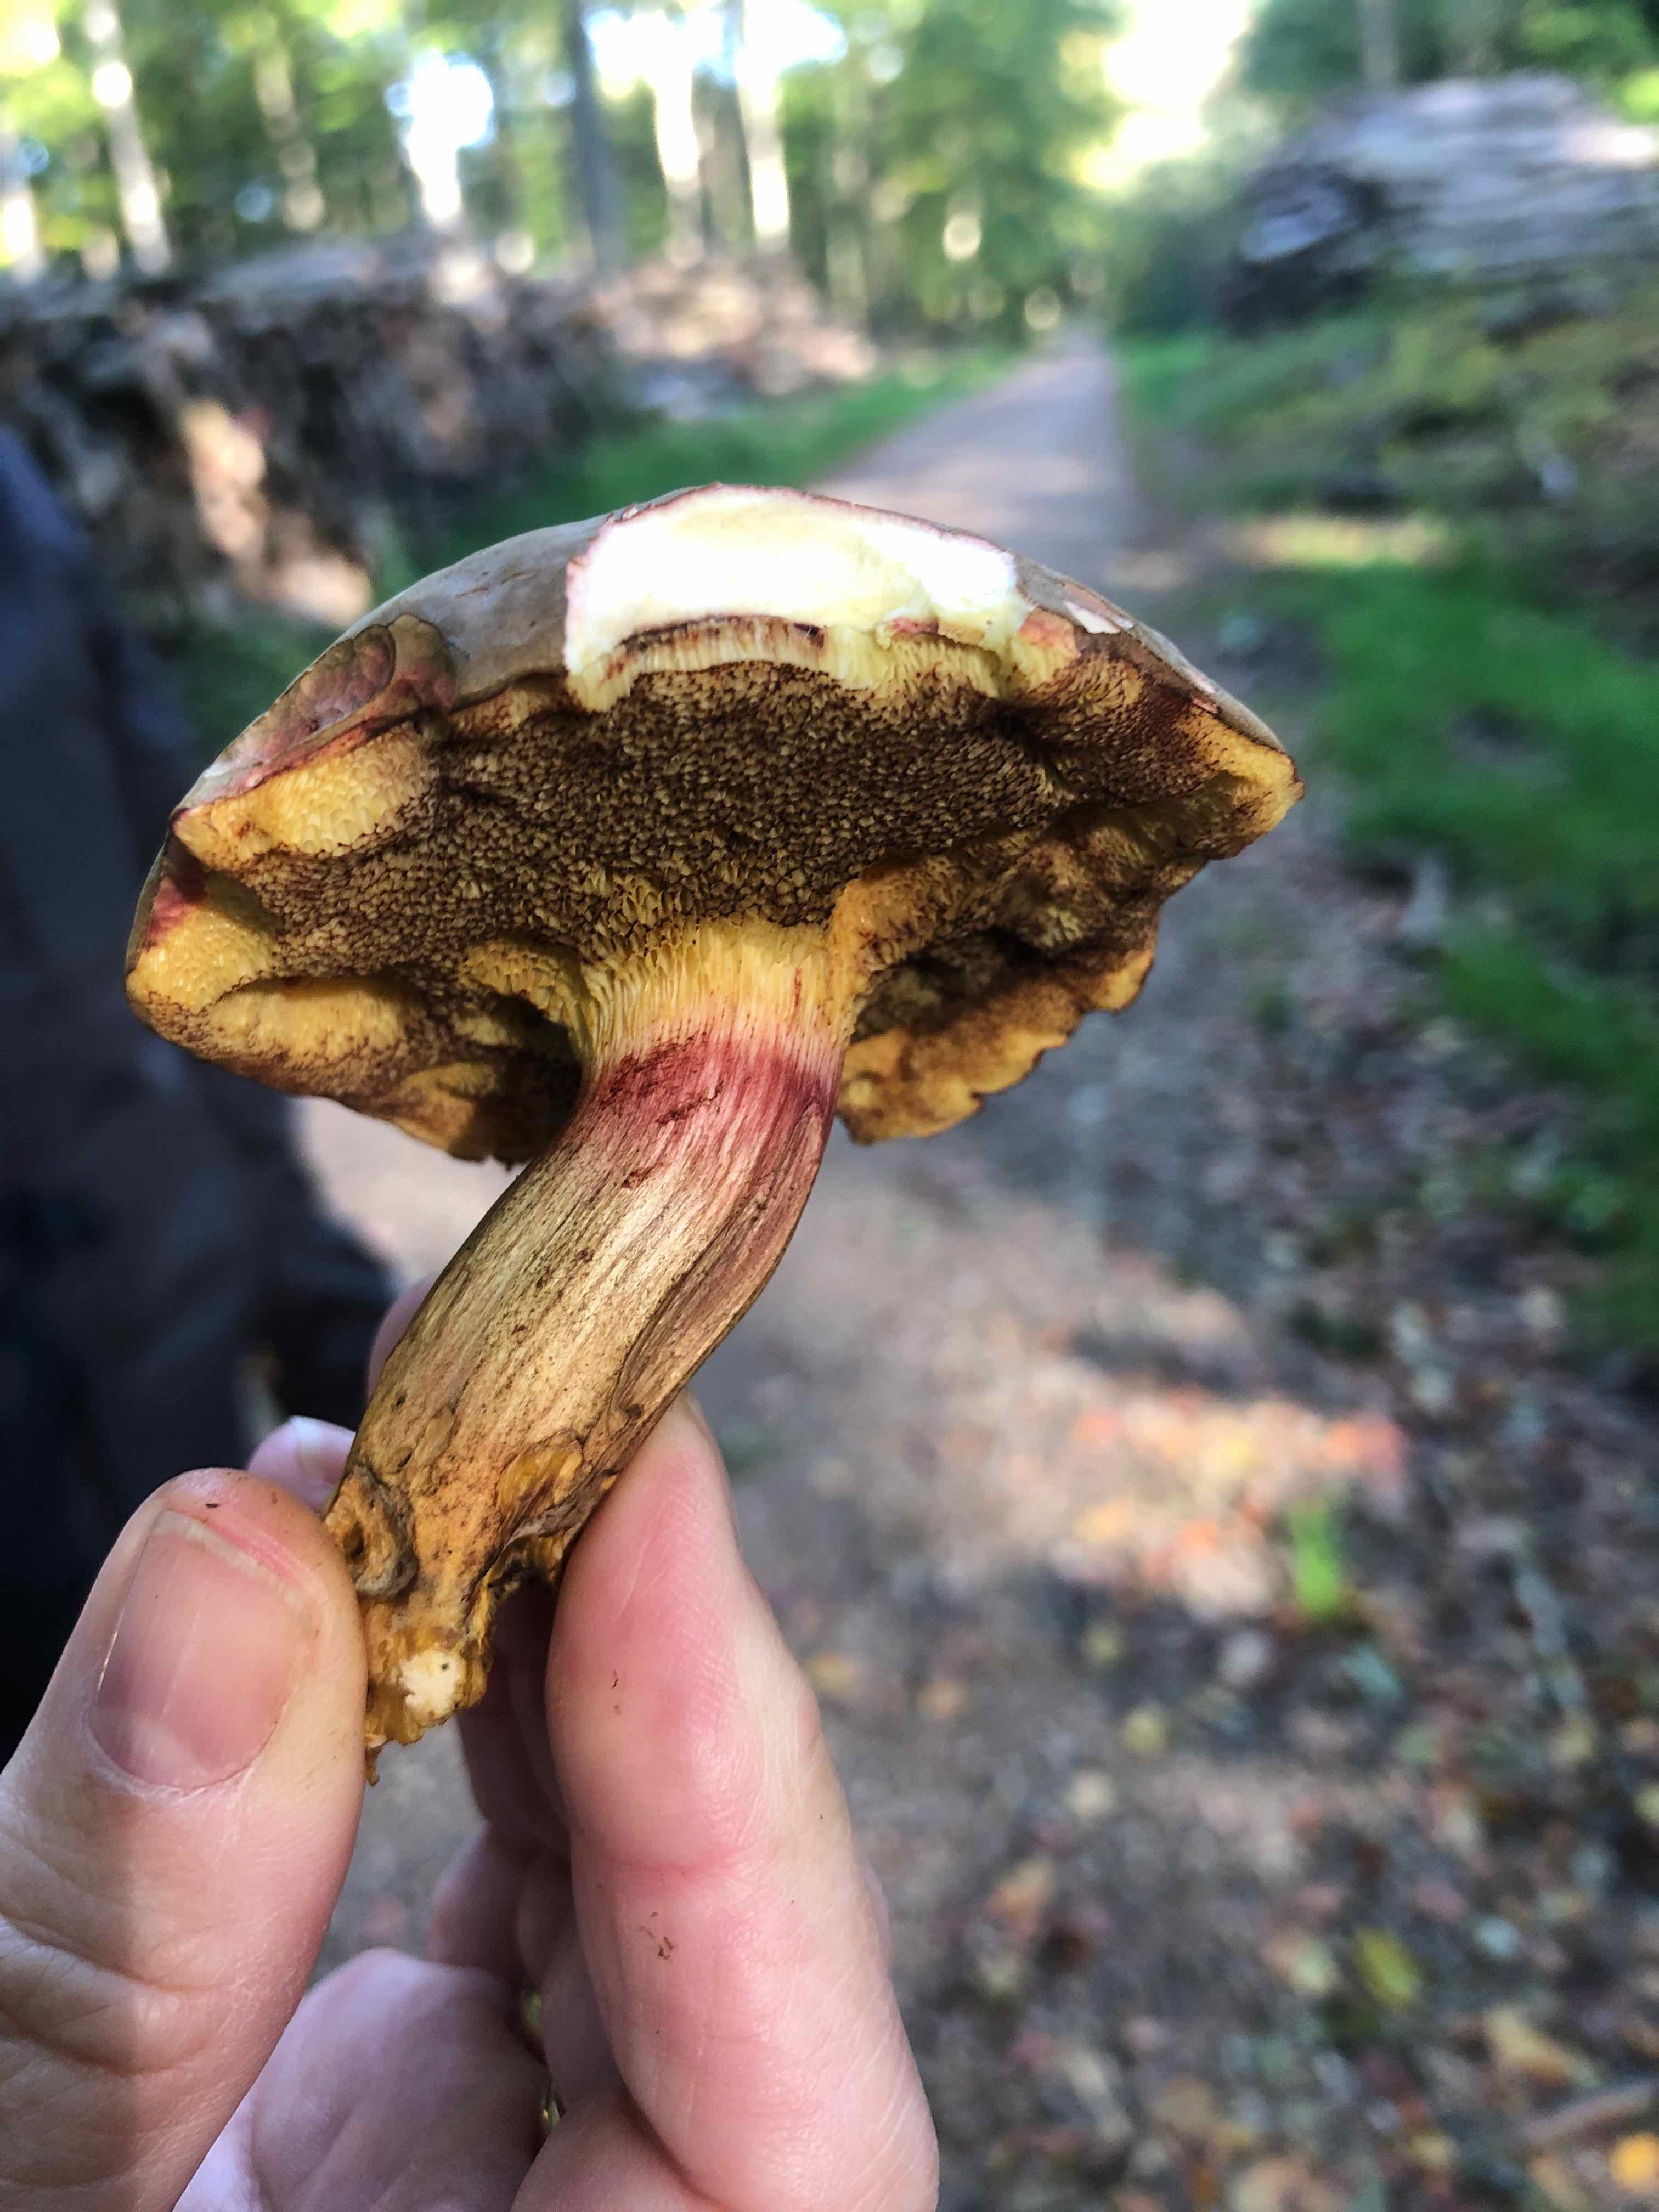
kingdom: Fungi
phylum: Basidiomycota
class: Agaricomycetes
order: Boletales
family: Boletaceae
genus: Xerocomellus
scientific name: Xerocomellus pruinatus
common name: dugget rørhat
